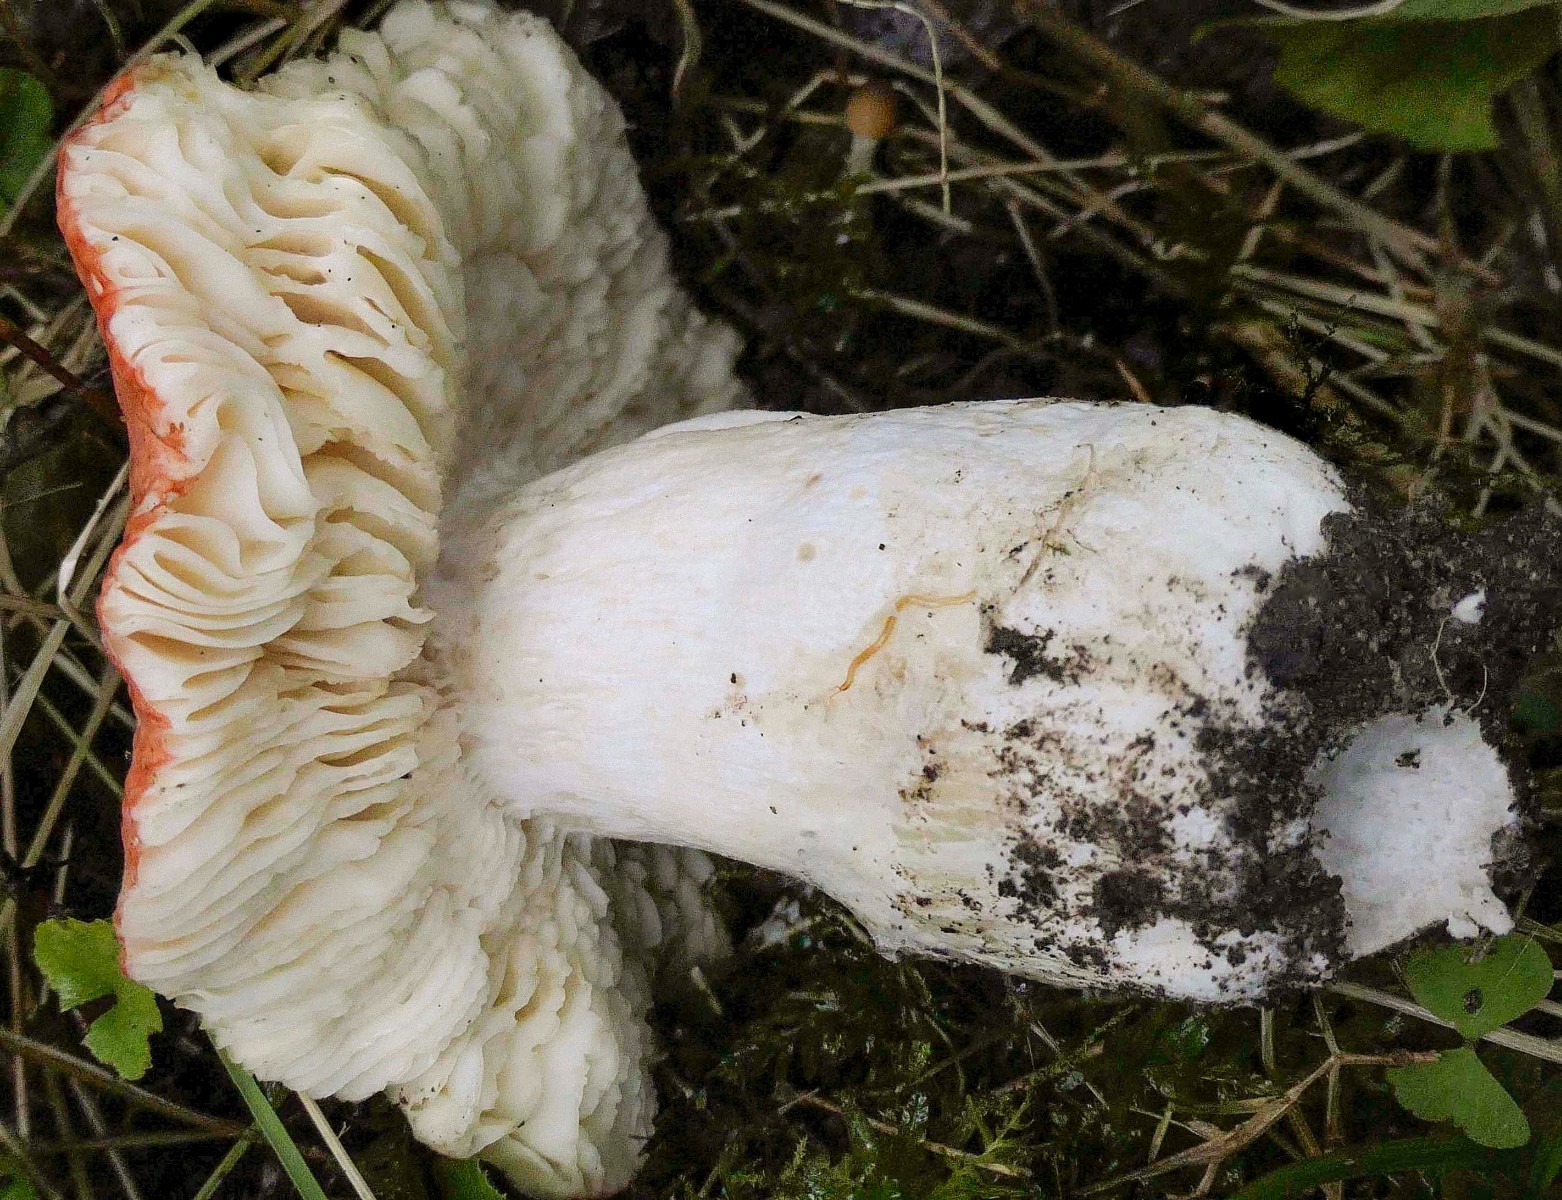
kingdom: Fungi
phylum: Basidiomycota
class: Agaricomycetes
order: Russulales
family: Russulaceae
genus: Russula
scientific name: Russula pseudointegra
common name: cinnoberrød skørhat
